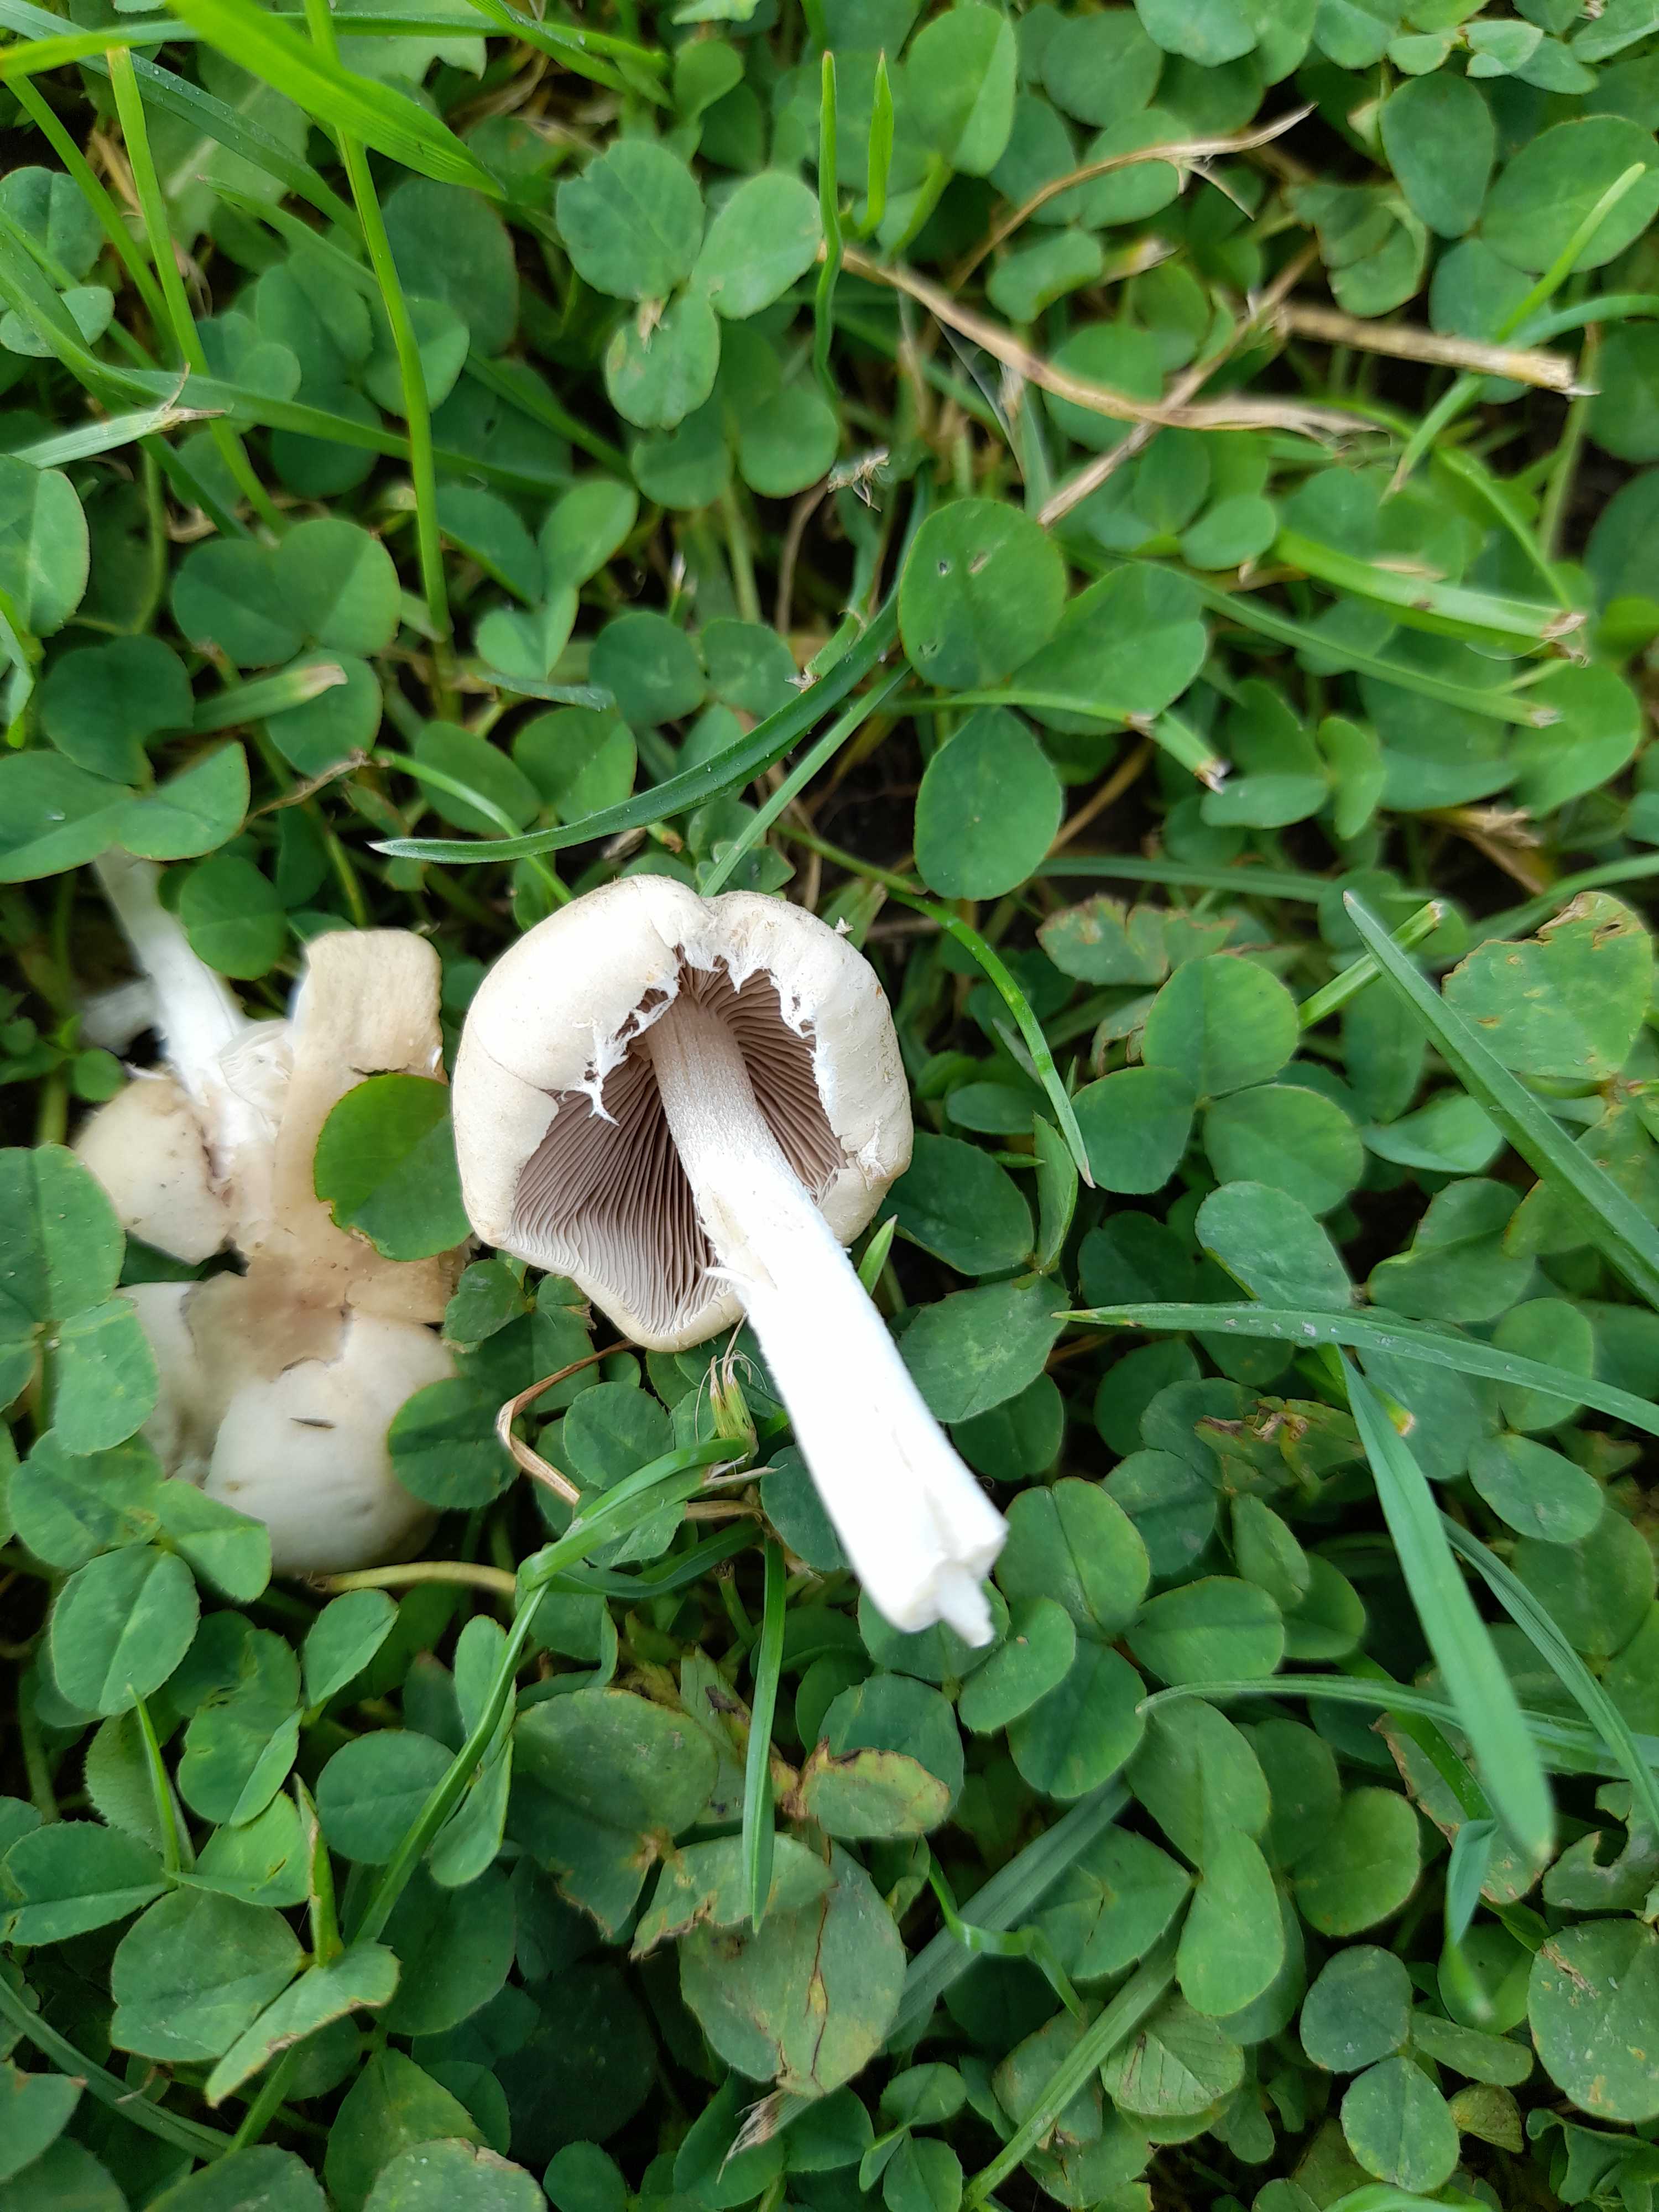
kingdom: Fungi
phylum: Basidiomycota
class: Agaricomycetes
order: Agaricales
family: Psathyrellaceae
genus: Candolleomyces
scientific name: Candolleomyces candolleanus
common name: Candolles mørkhat
